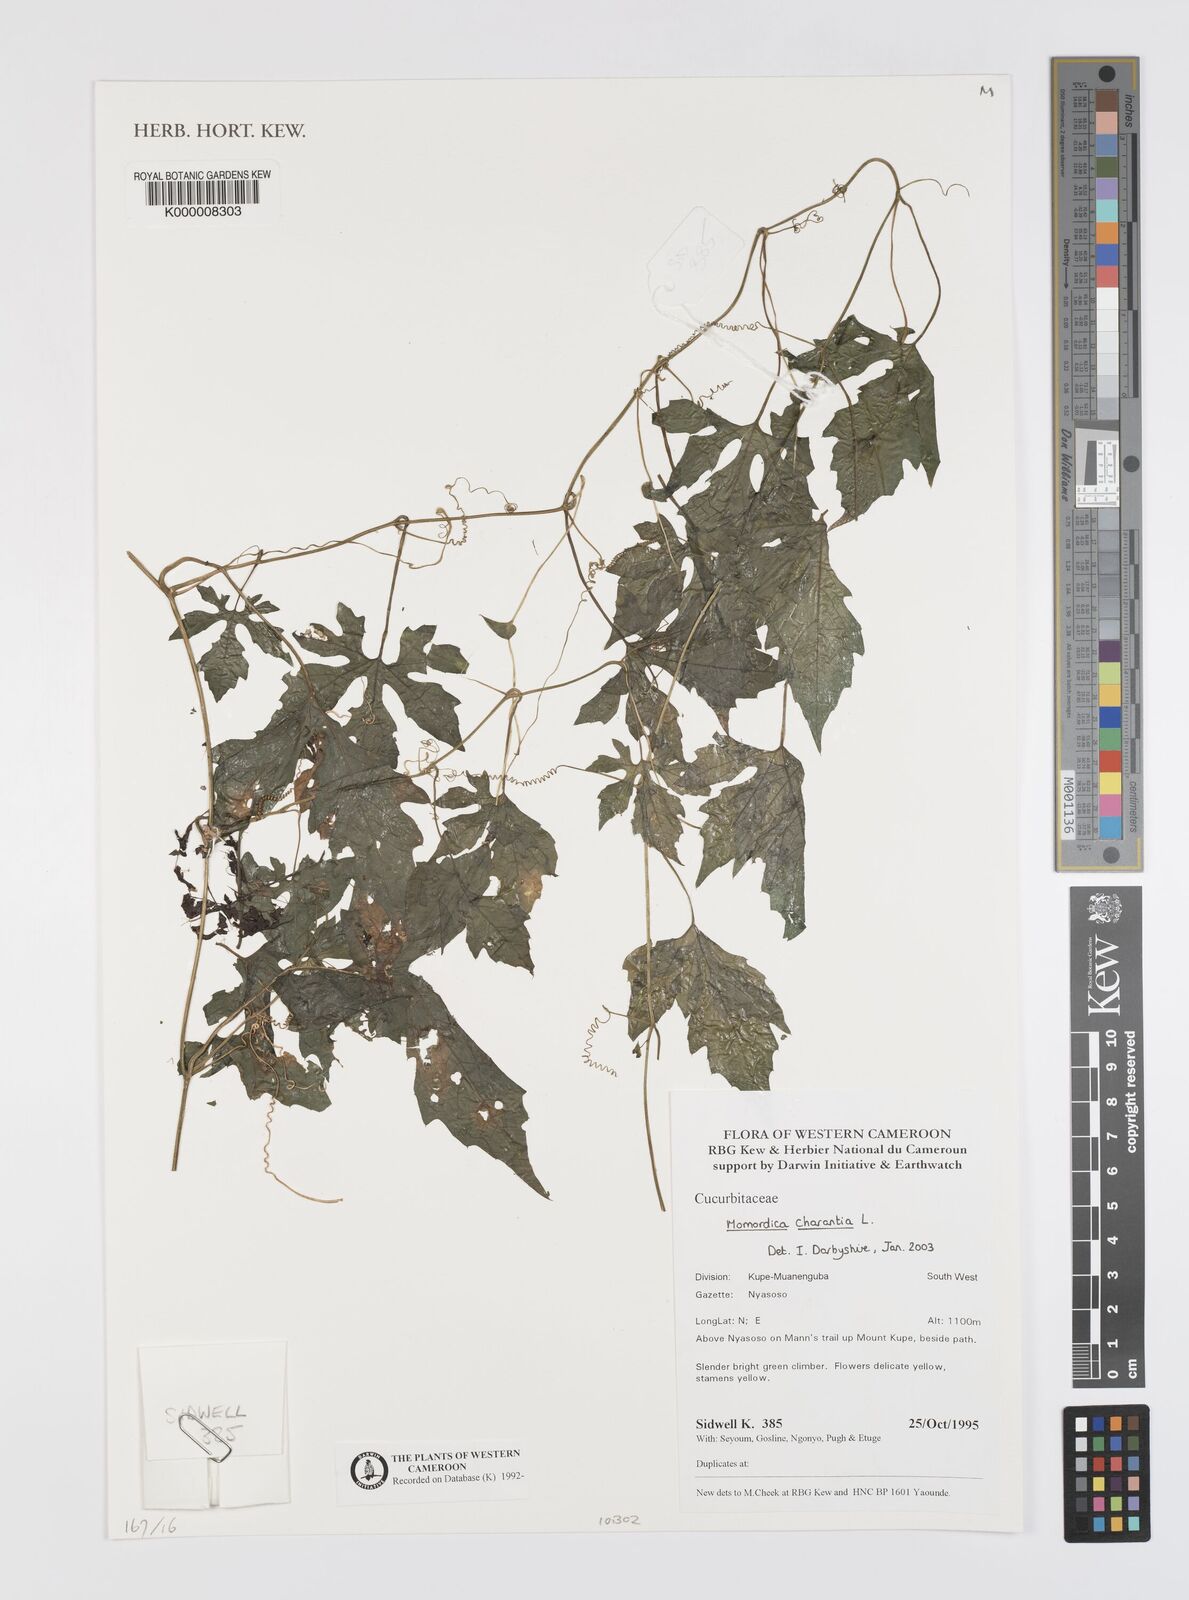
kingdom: Plantae
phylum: Tracheophyta
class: Magnoliopsida
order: Cucurbitales
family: Cucurbitaceae
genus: Momordica
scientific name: Momordica charantia
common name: Balsampear
